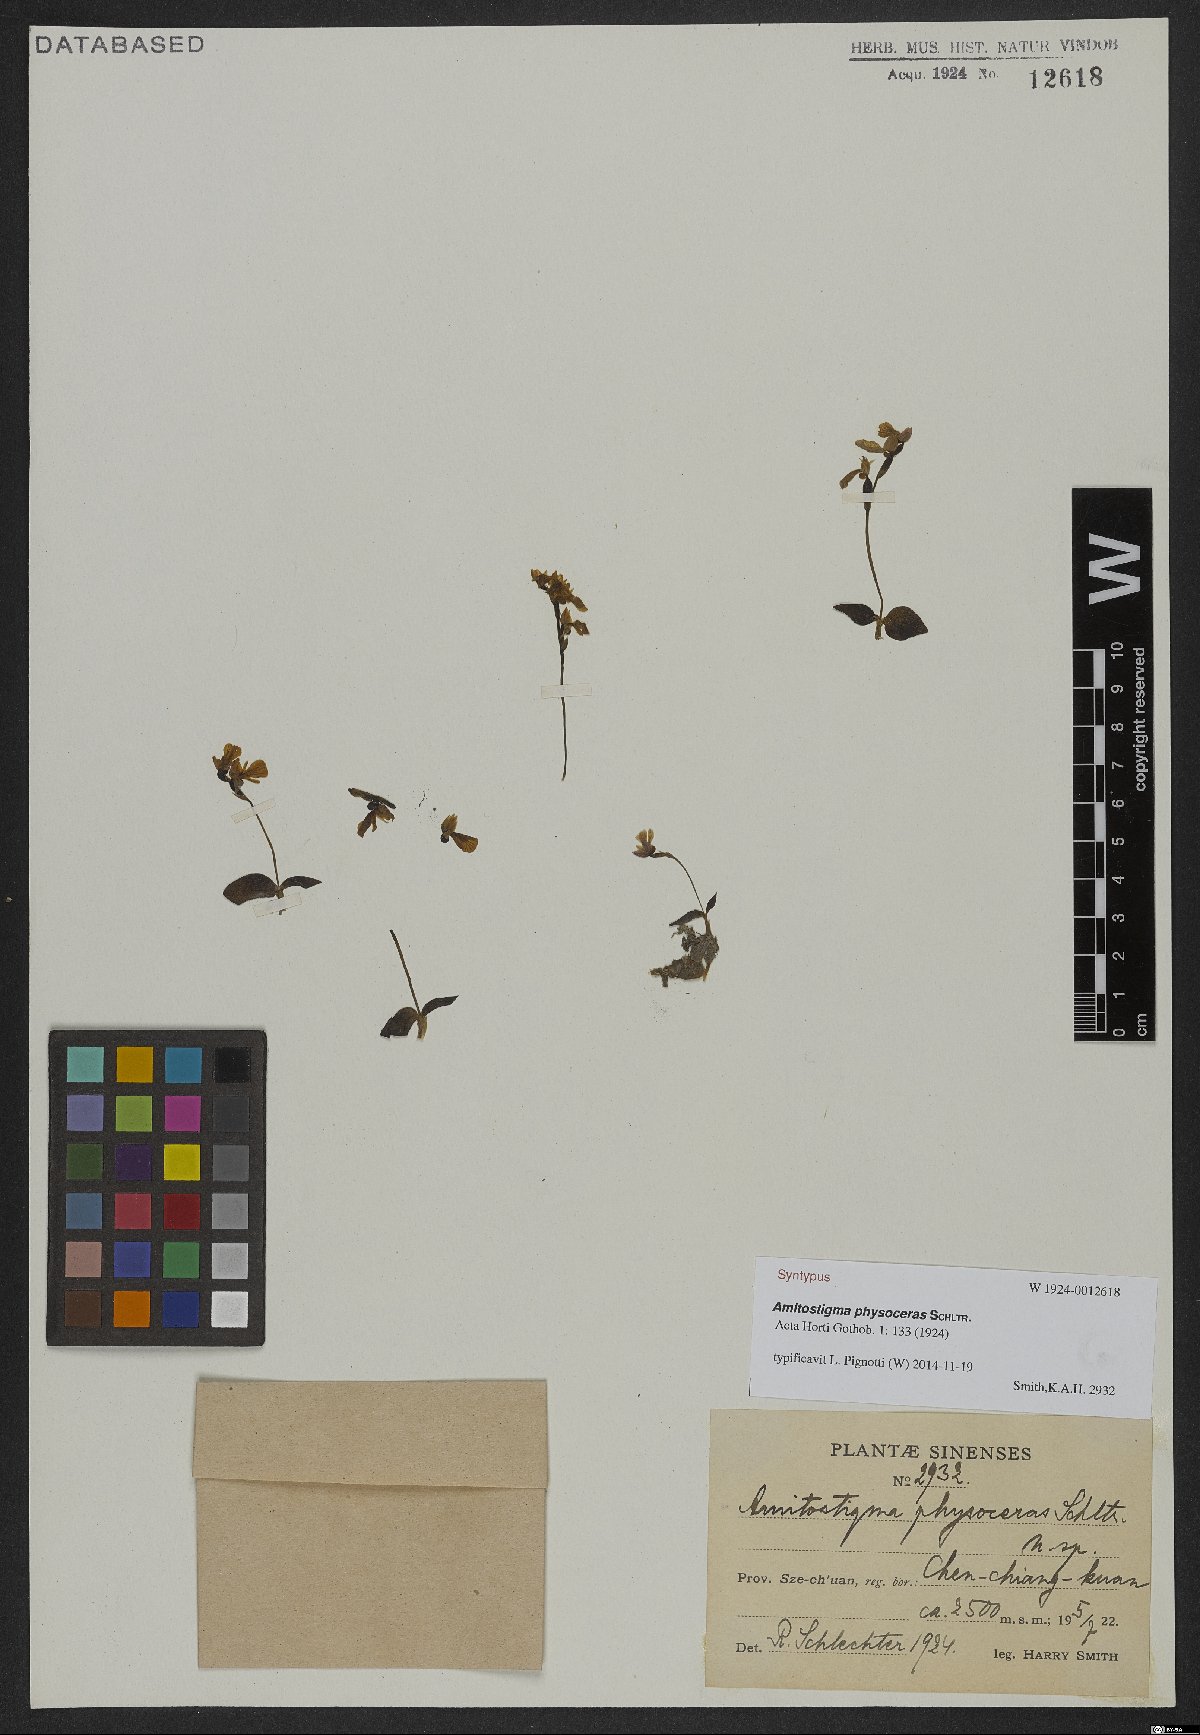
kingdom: Plantae
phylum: Tracheophyta
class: Liliopsida
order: Asparagales
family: Orchidaceae
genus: Hemipilia
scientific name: Hemipilia physoceras
